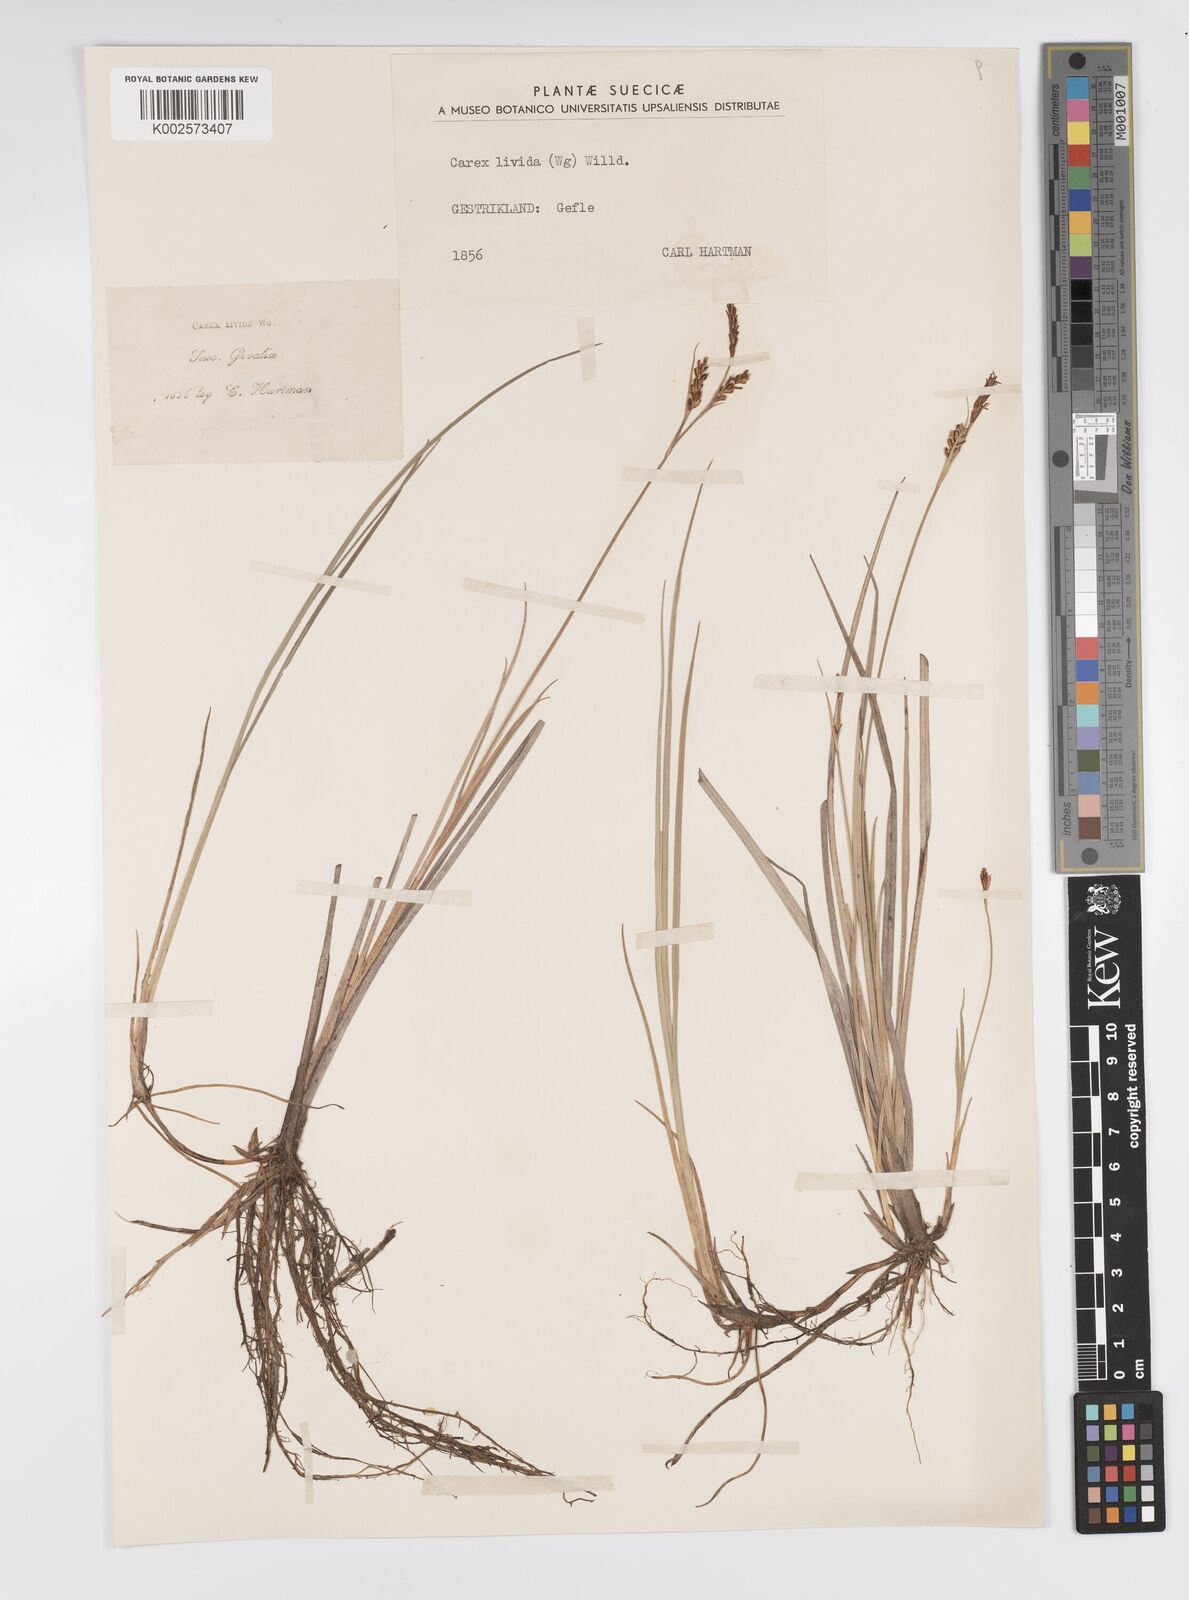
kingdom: Plantae
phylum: Tracheophyta
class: Liliopsida
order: Poales
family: Cyperaceae
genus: Carex
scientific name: Carex livida
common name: Livid sedge
